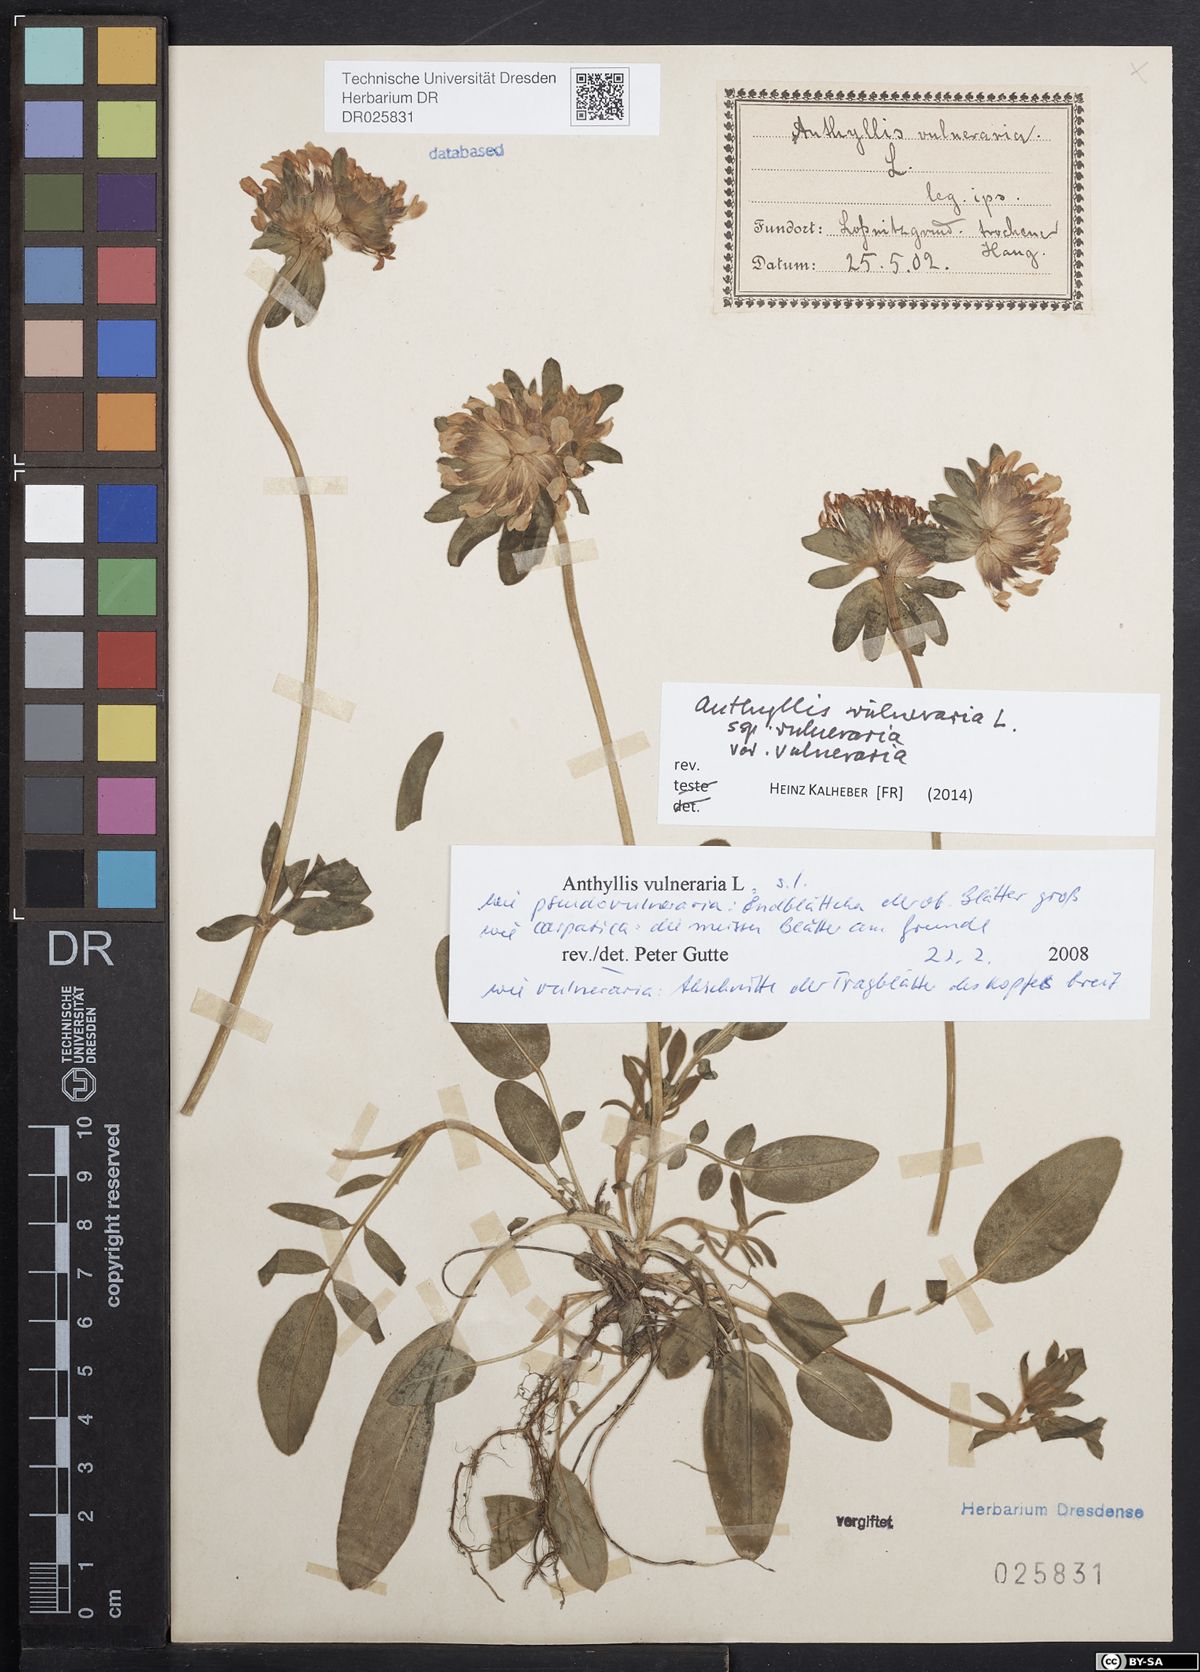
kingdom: Plantae
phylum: Tracheophyta
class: Magnoliopsida
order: Fabales
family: Fabaceae
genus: Anthyllis
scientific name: Anthyllis vulneraria
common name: Kidney vetch
